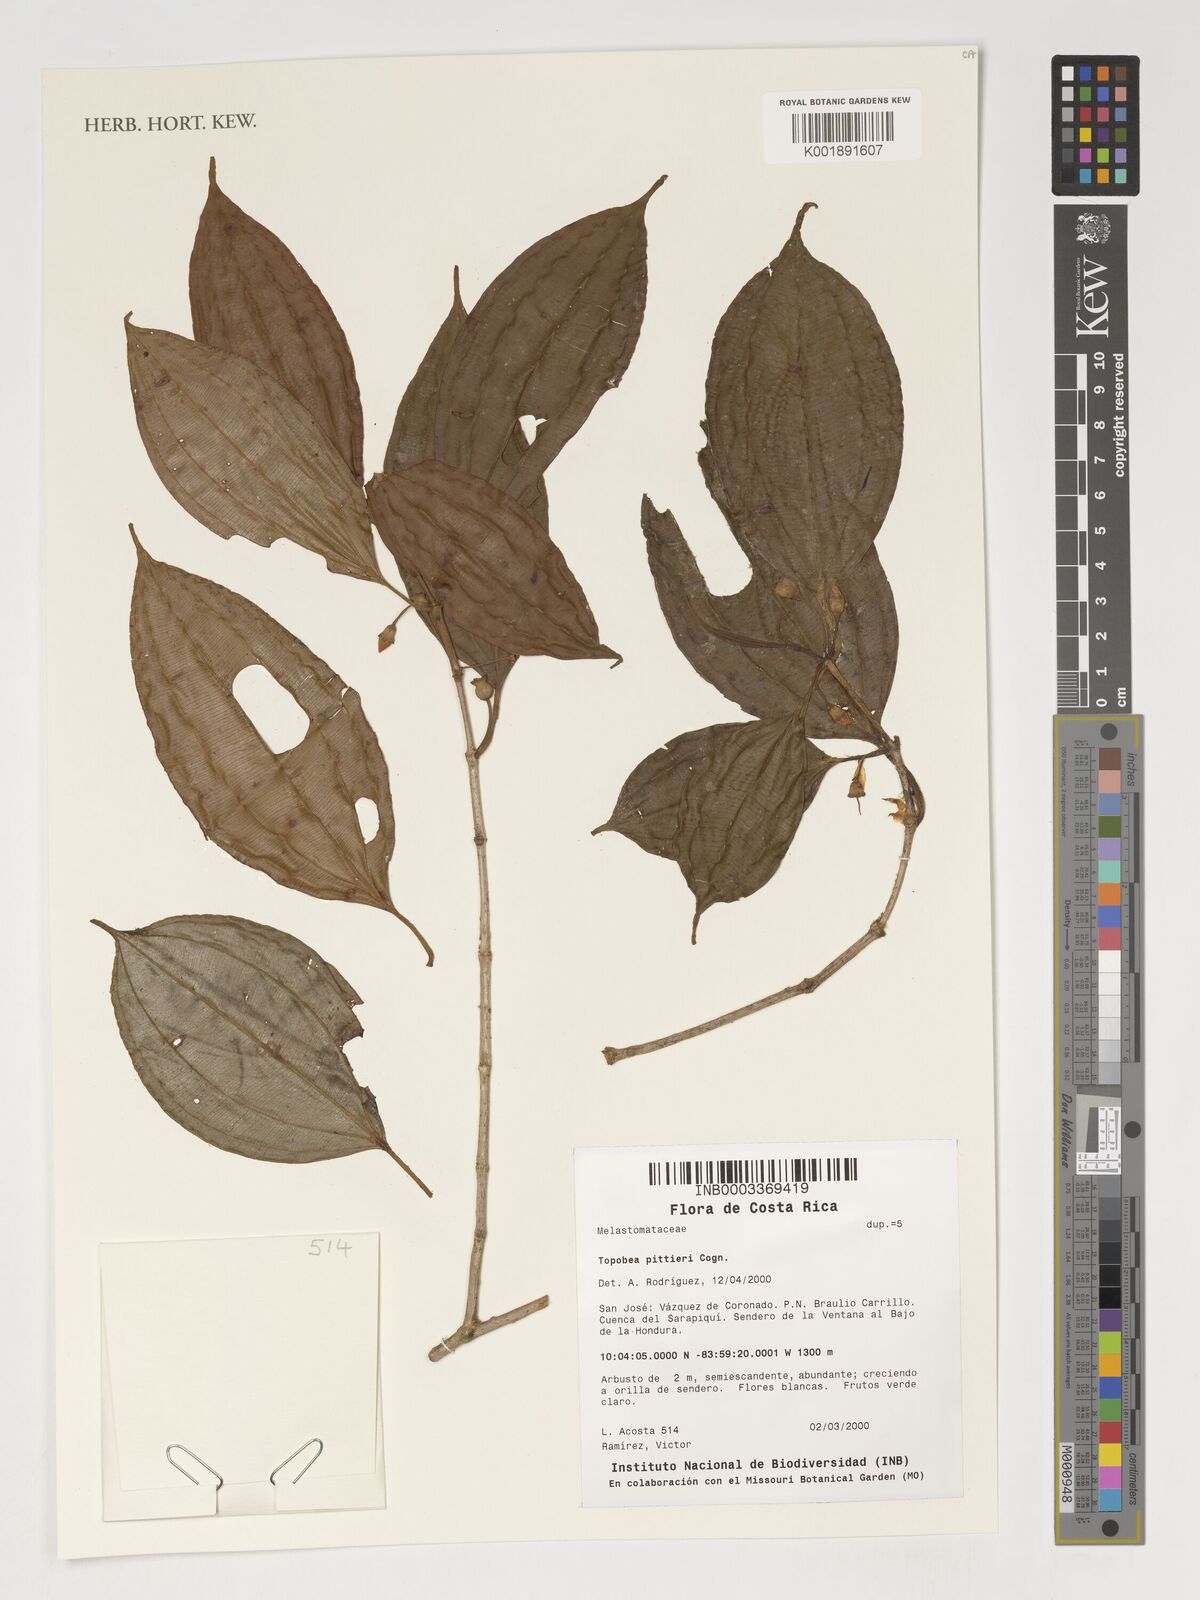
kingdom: Plantae
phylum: Tracheophyta
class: Magnoliopsida
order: Myrtales
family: Melastomataceae
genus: Blakea
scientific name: Blakea henripittieri
